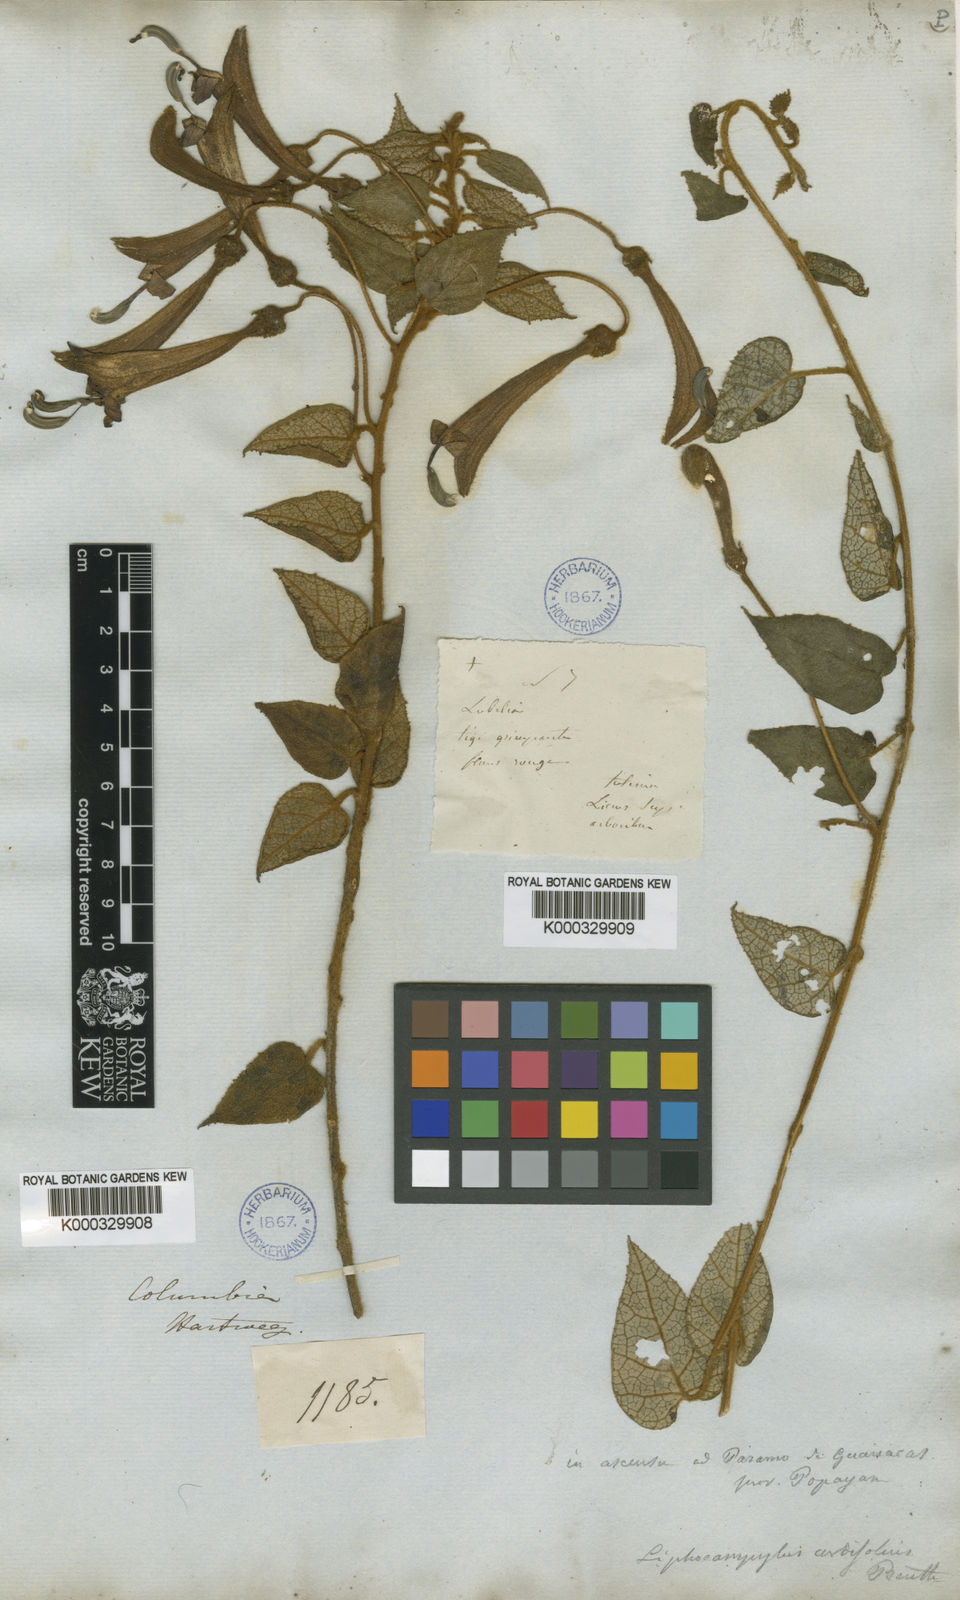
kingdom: Plantae
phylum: Tracheophyta
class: Magnoliopsida
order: Asterales
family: Campanulaceae
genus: Siphocampylus
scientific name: Siphocampylus benthamianus
